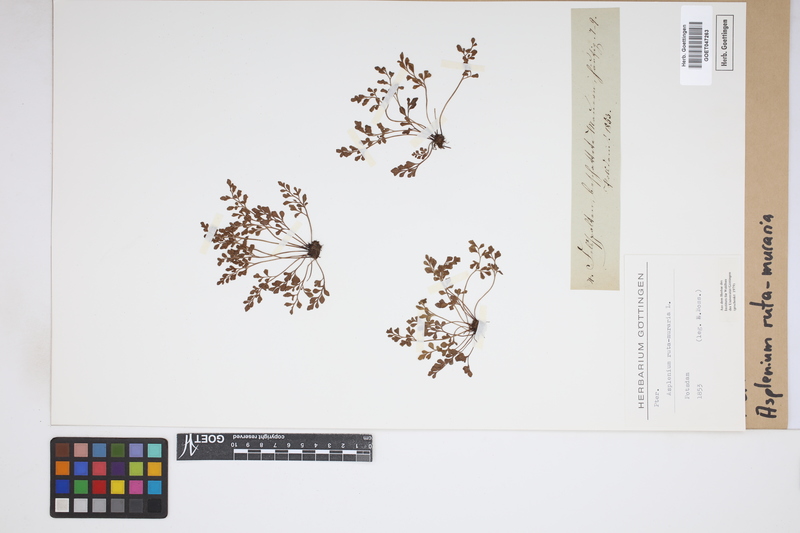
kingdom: Plantae
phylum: Tracheophyta
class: Polypodiopsida
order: Polypodiales
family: Aspleniaceae
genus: Asplenium
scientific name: Asplenium ruta-muraria
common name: Wall-rue
